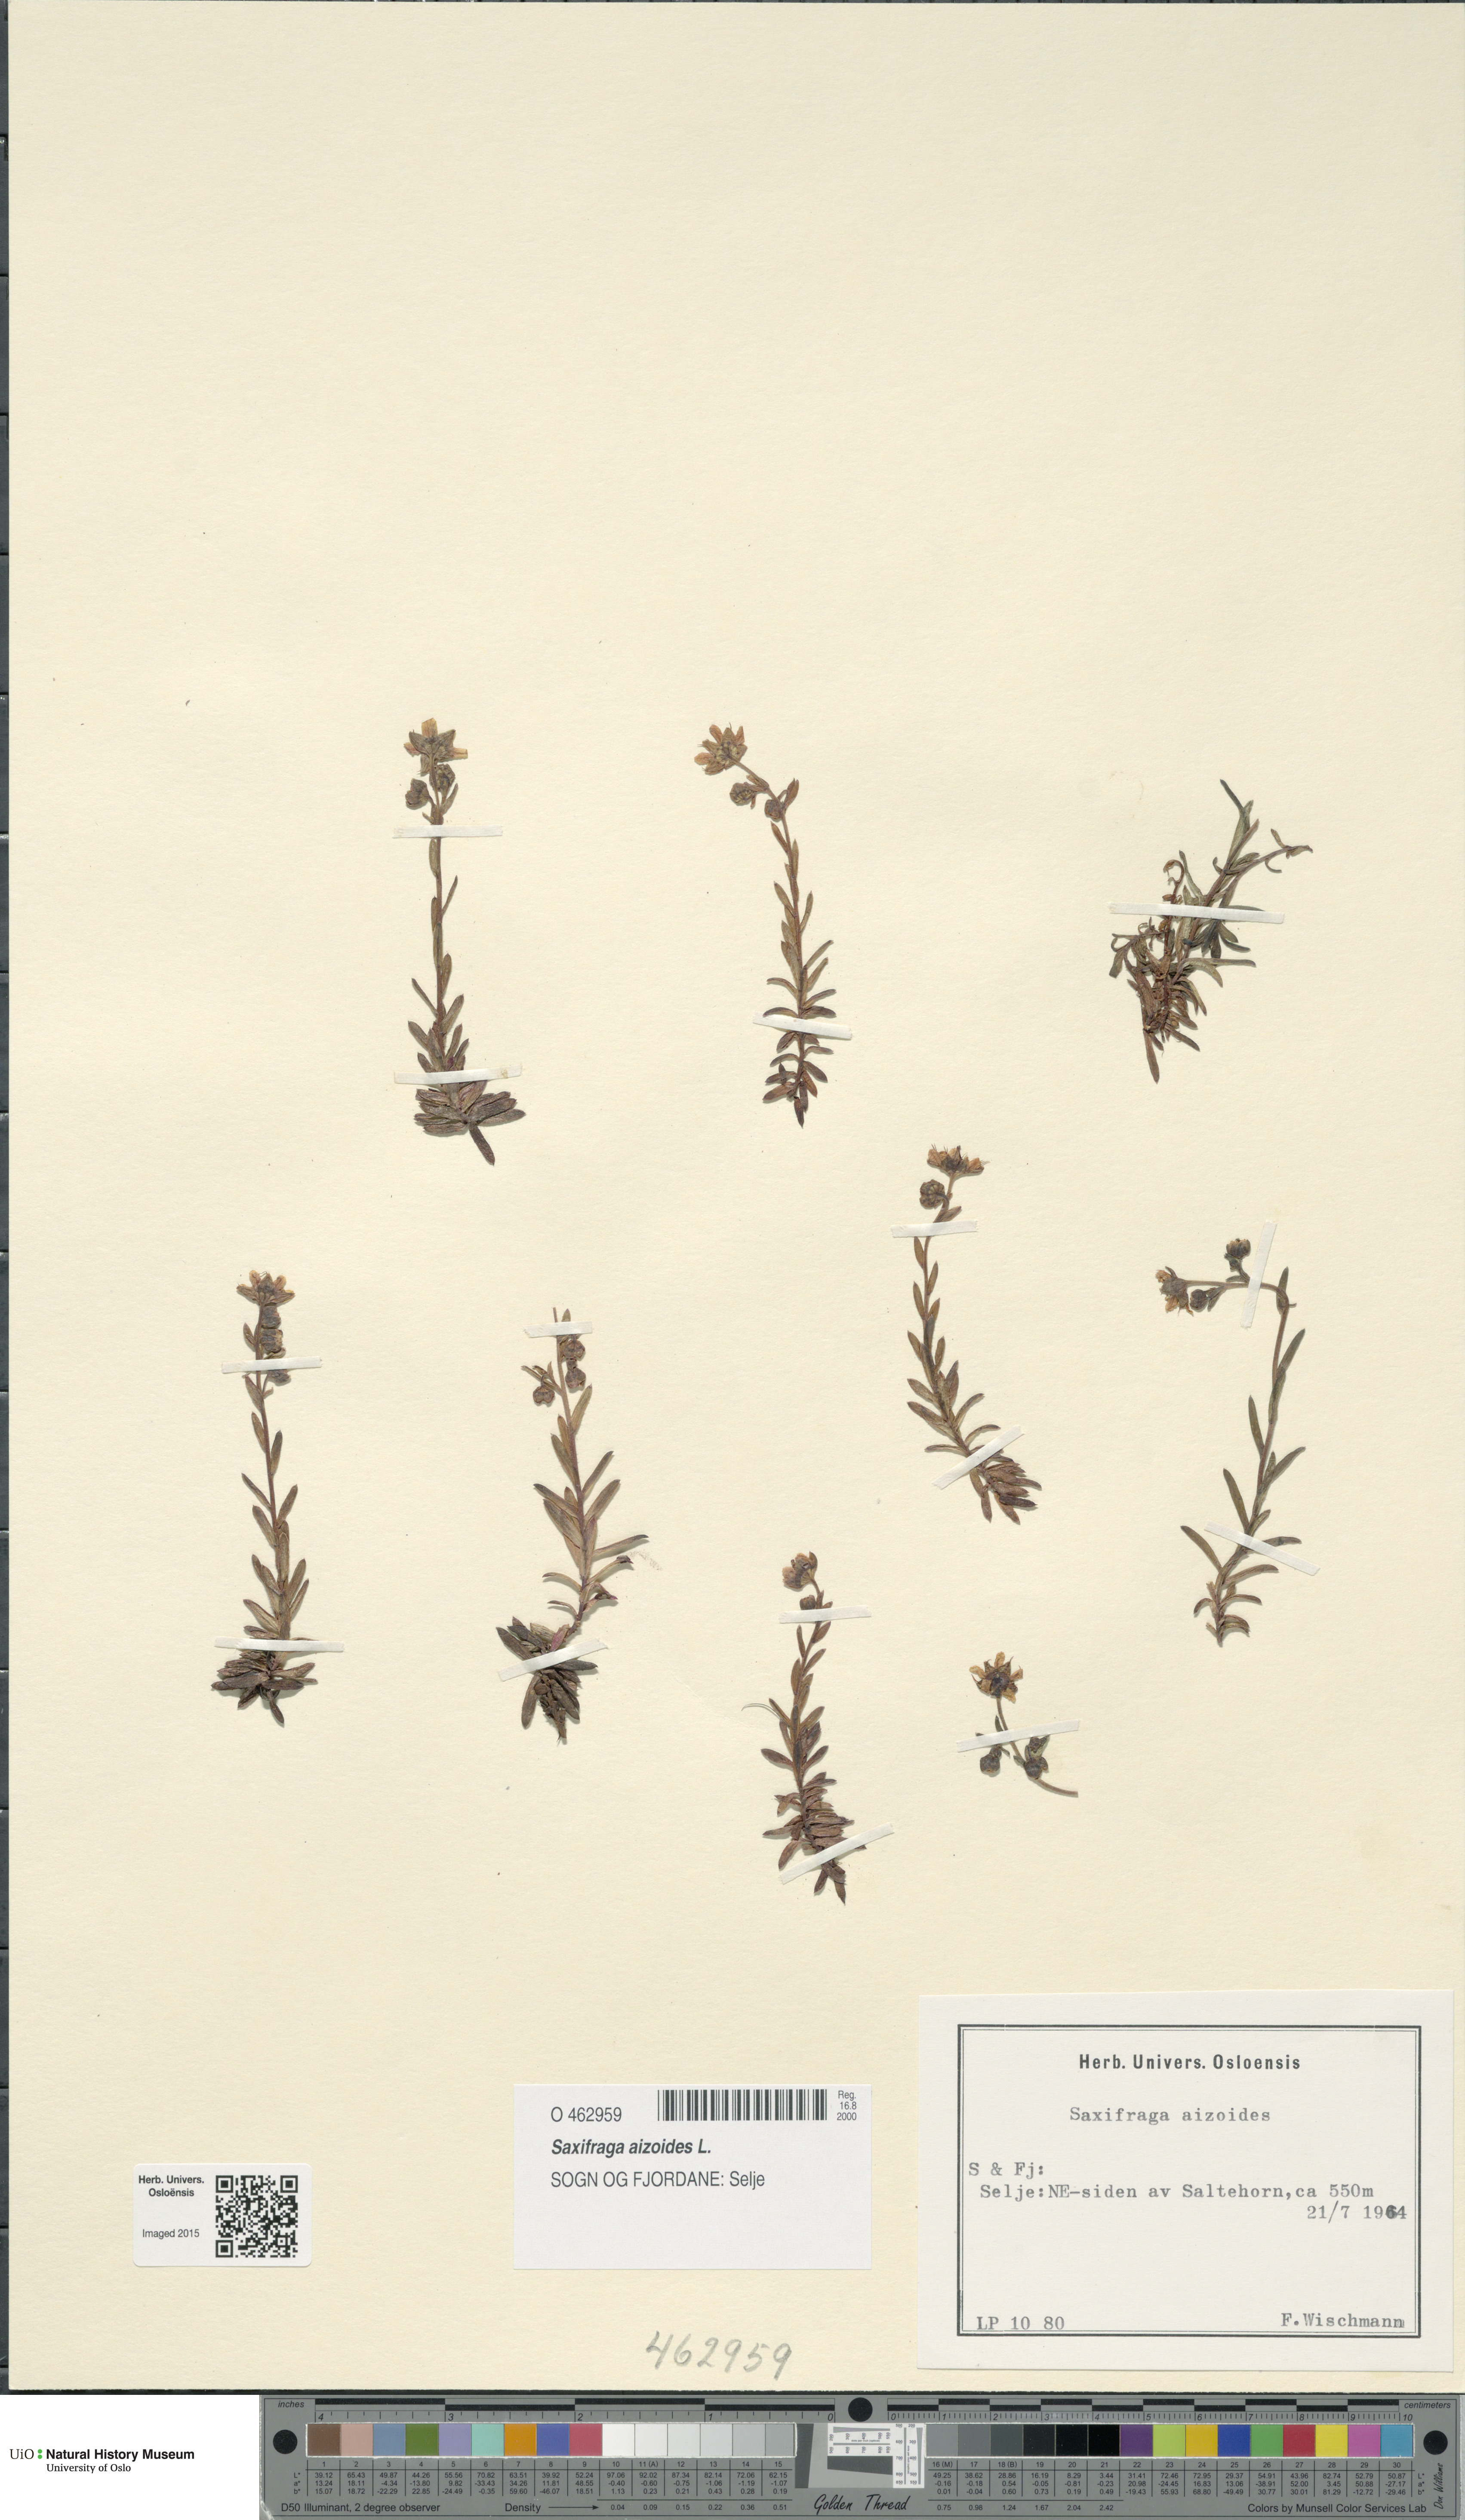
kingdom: Plantae
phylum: Tracheophyta
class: Magnoliopsida
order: Saxifragales
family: Saxifragaceae
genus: Saxifraga
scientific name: Saxifraga aizoides
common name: Yellow mountain saxifrage
